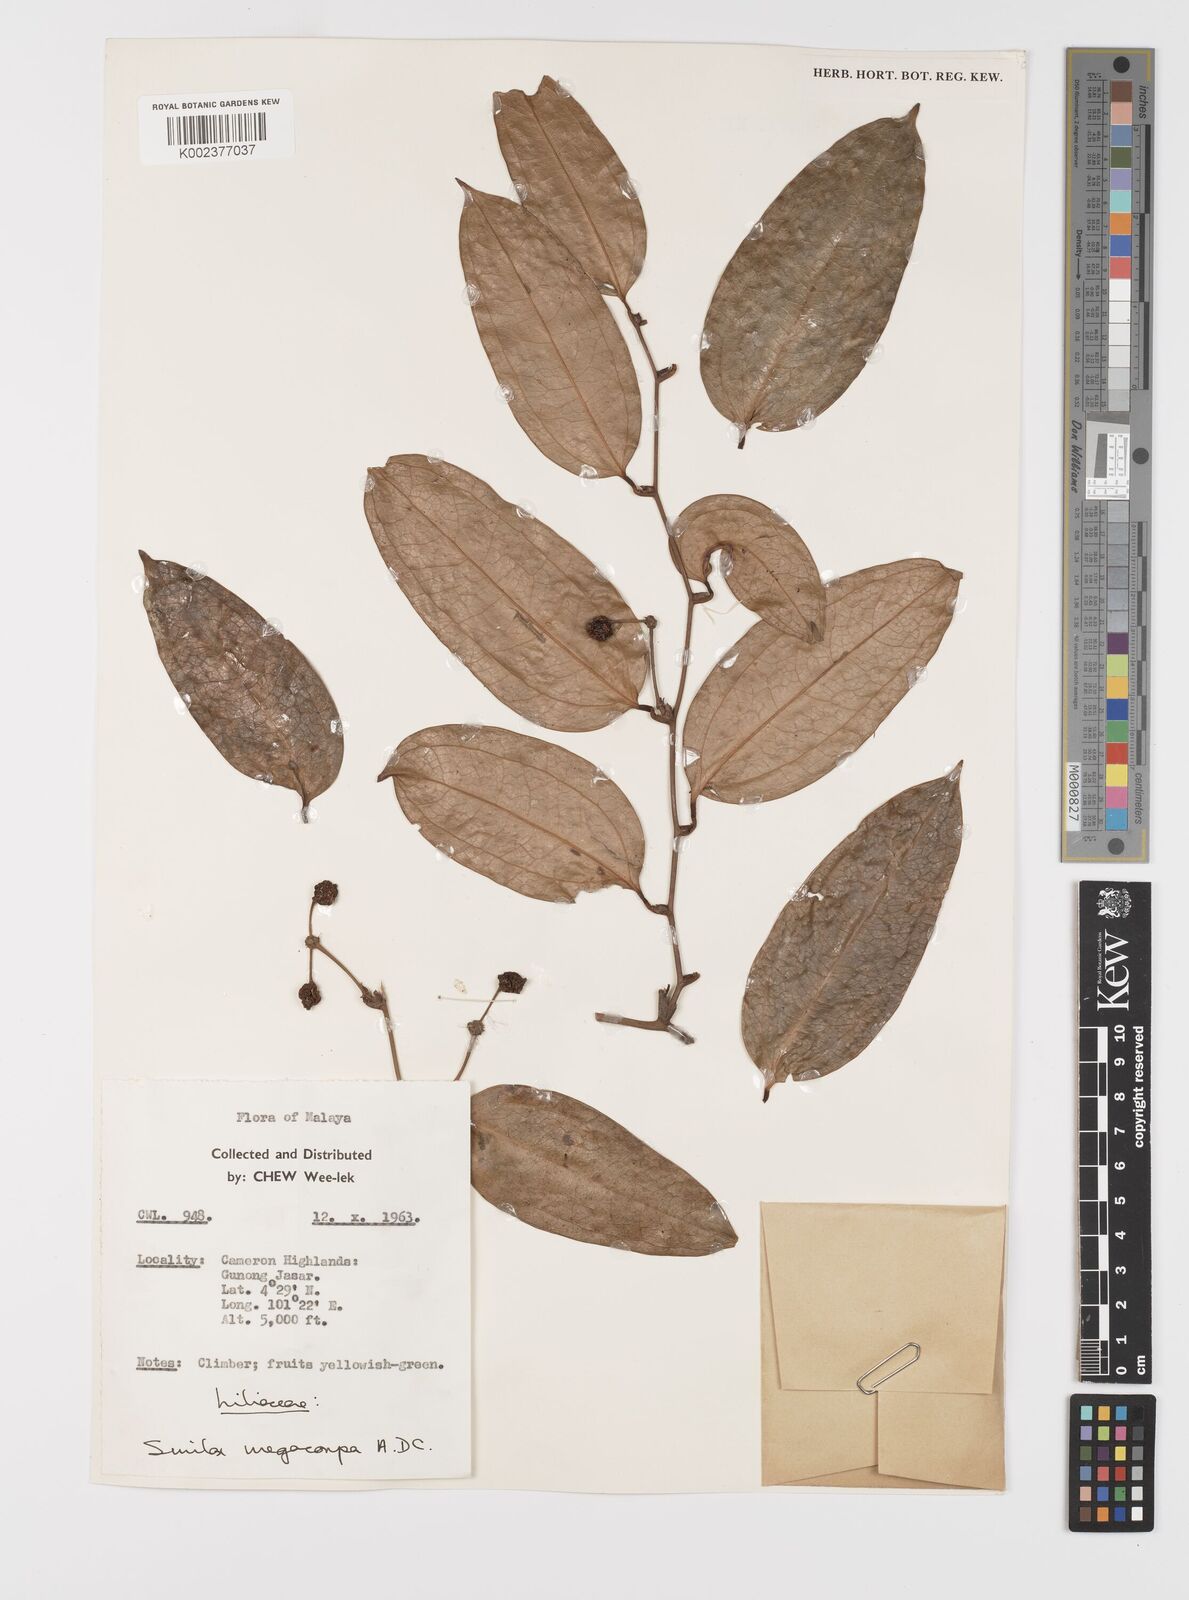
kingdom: Plantae
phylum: Tracheophyta
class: Liliopsida
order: Liliales
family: Smilacaceae
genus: Smilax
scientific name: Smilax megacarpa
